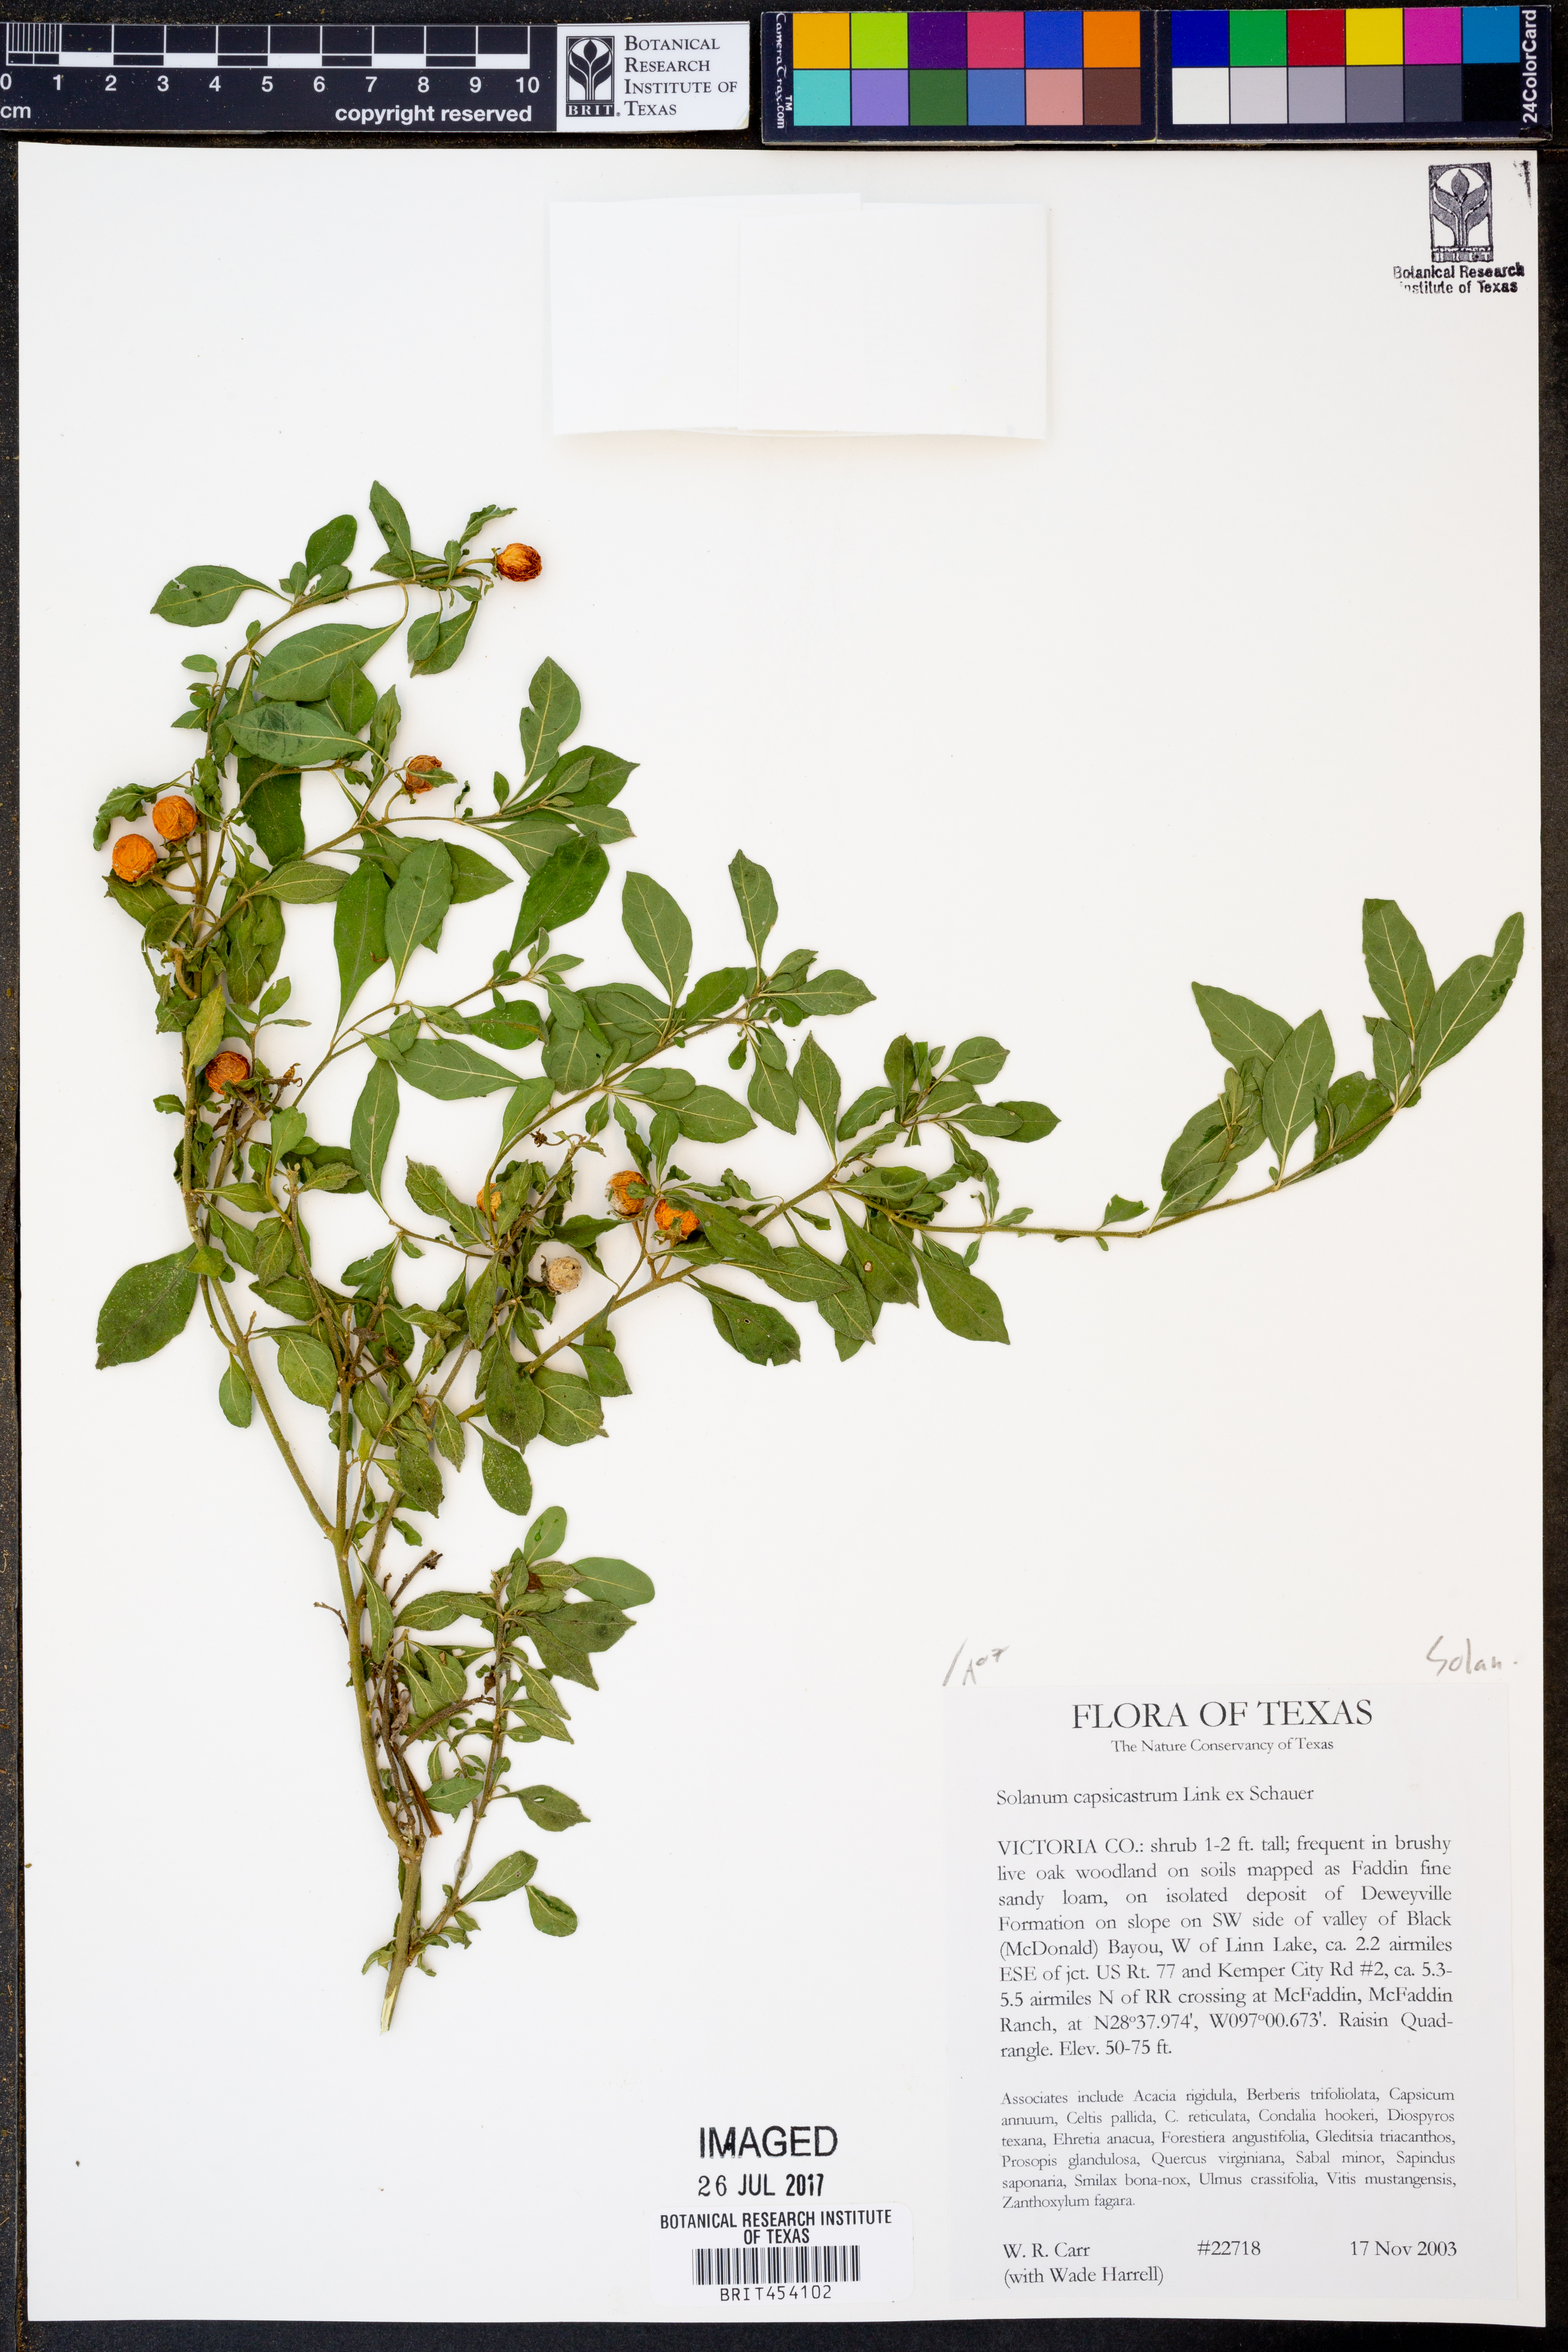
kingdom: Plantae
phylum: Tracheophyta
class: Magnoliopsida
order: Solanales
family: Solanaceae
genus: Solanum
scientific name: Solanum pseudocapsicum
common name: Jerusalem cherry
